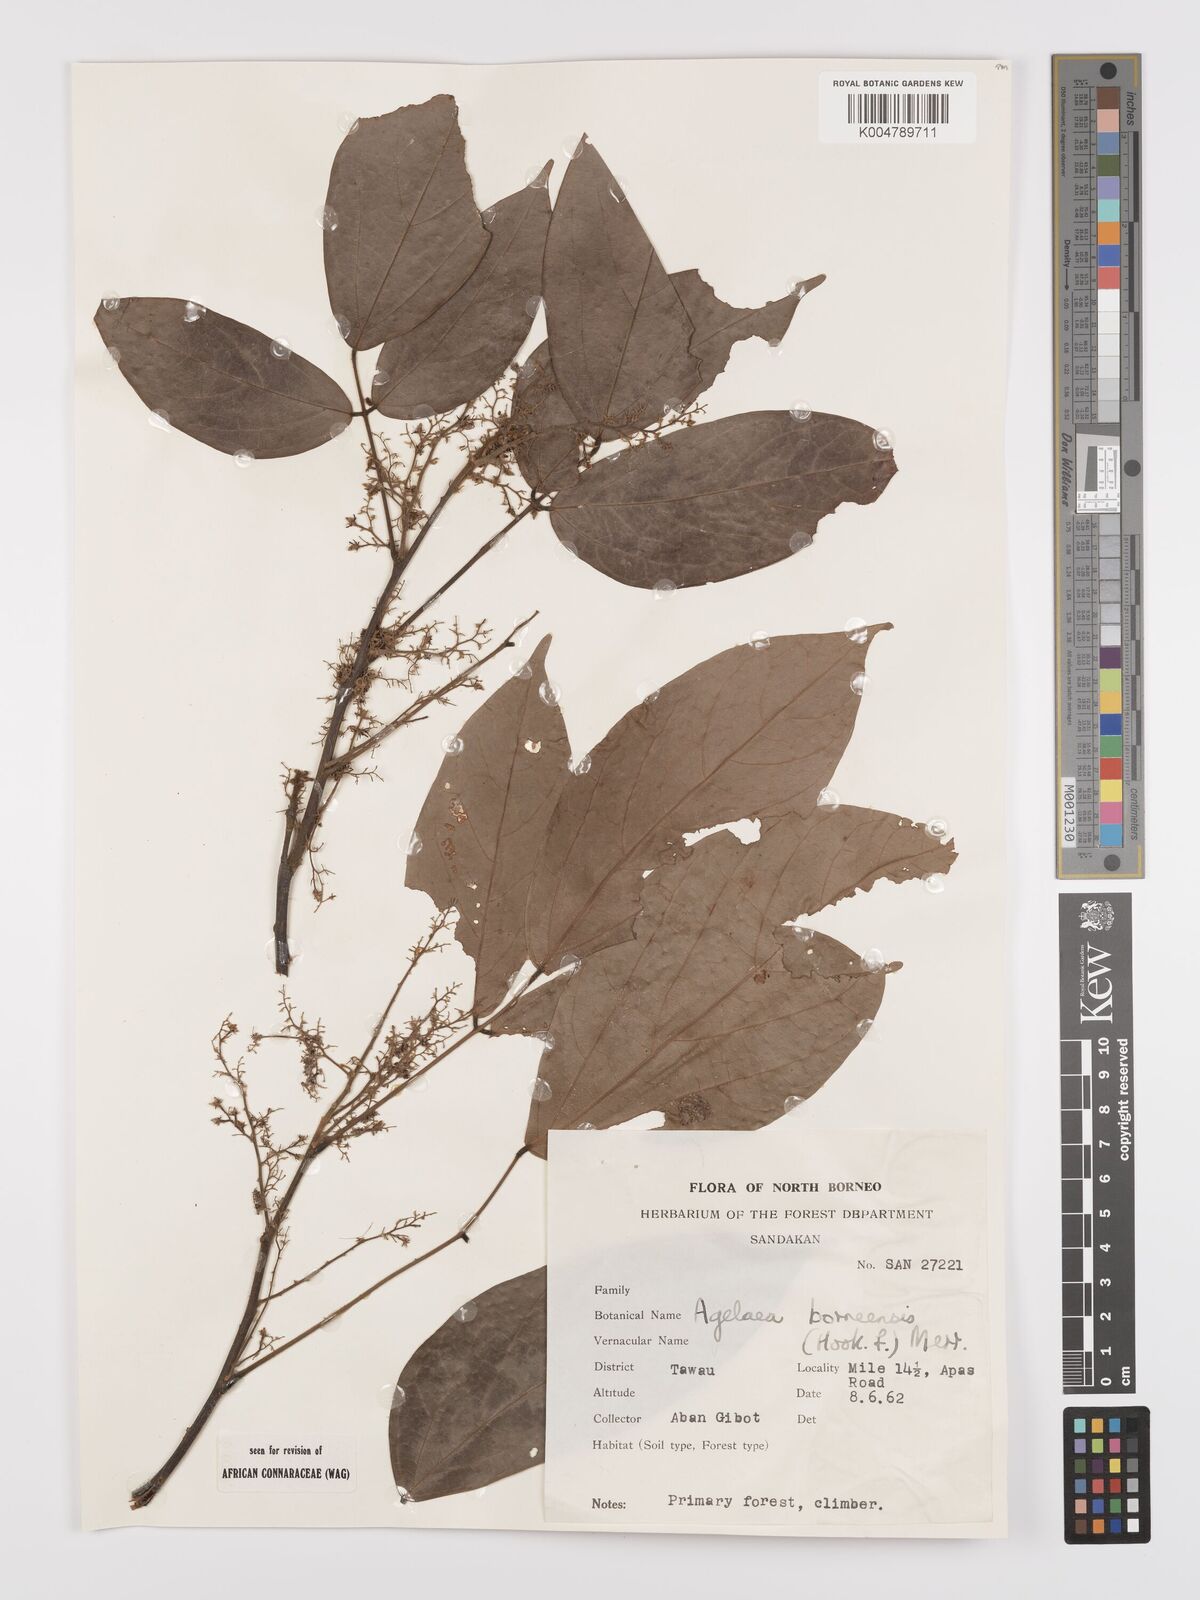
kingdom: Plantae
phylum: Tracheophyta
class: Magnoliopsida
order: Oxalidales
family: Connaraceae
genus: Agelaea
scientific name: Agelaea borneensis
